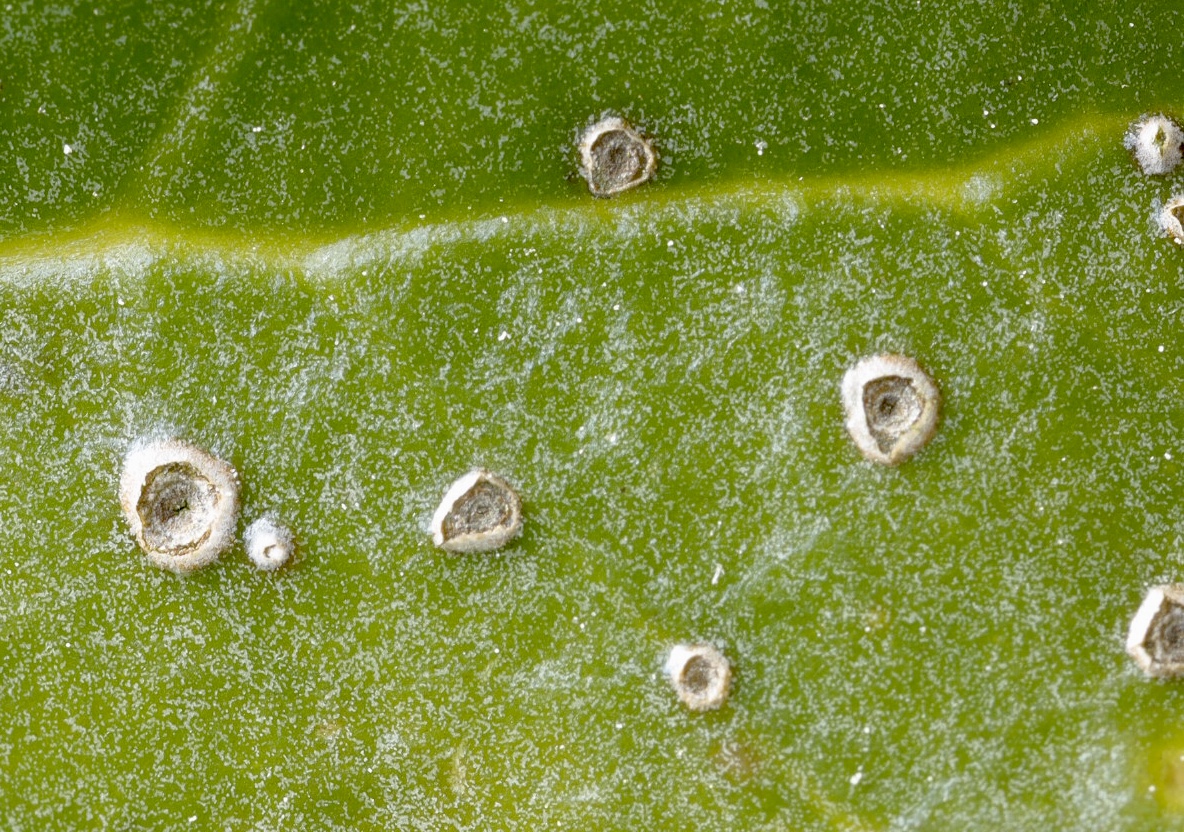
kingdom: Fungi
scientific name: Fungi
